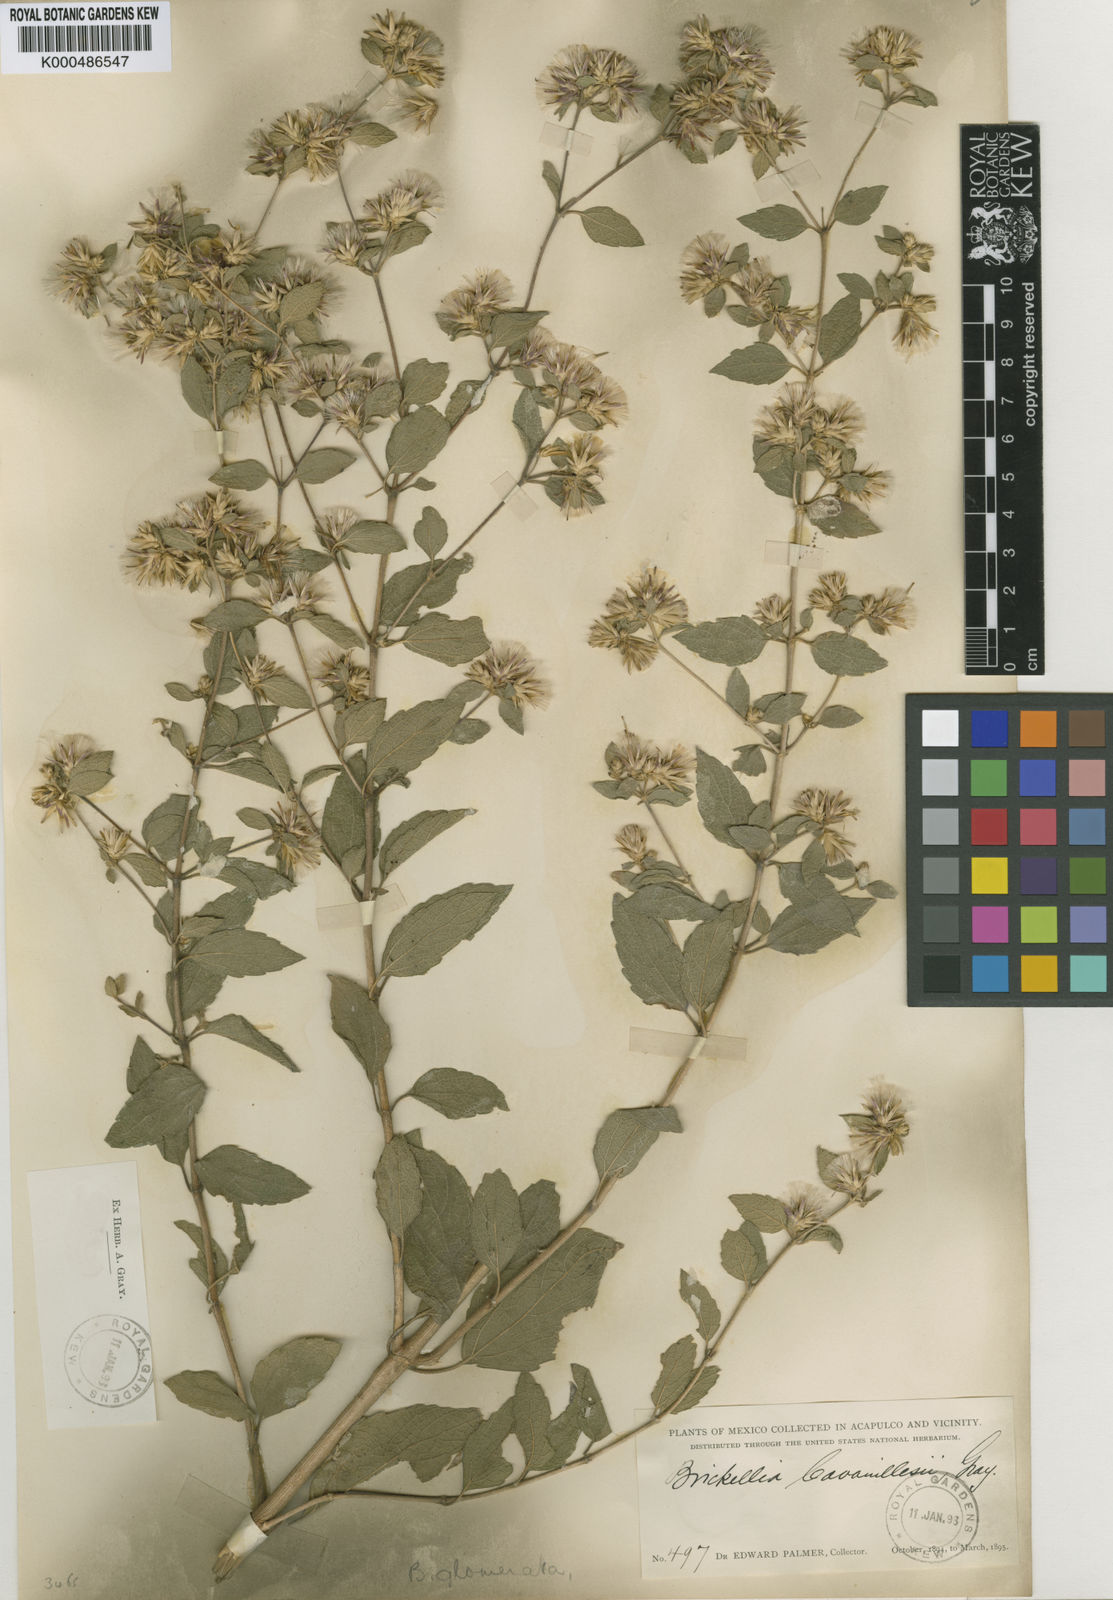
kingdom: Plantae
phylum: Tracheophyta
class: Magnoliopsida
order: Asterales
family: Asteraceae
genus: Brickellia
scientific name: Brickellia glomerata
